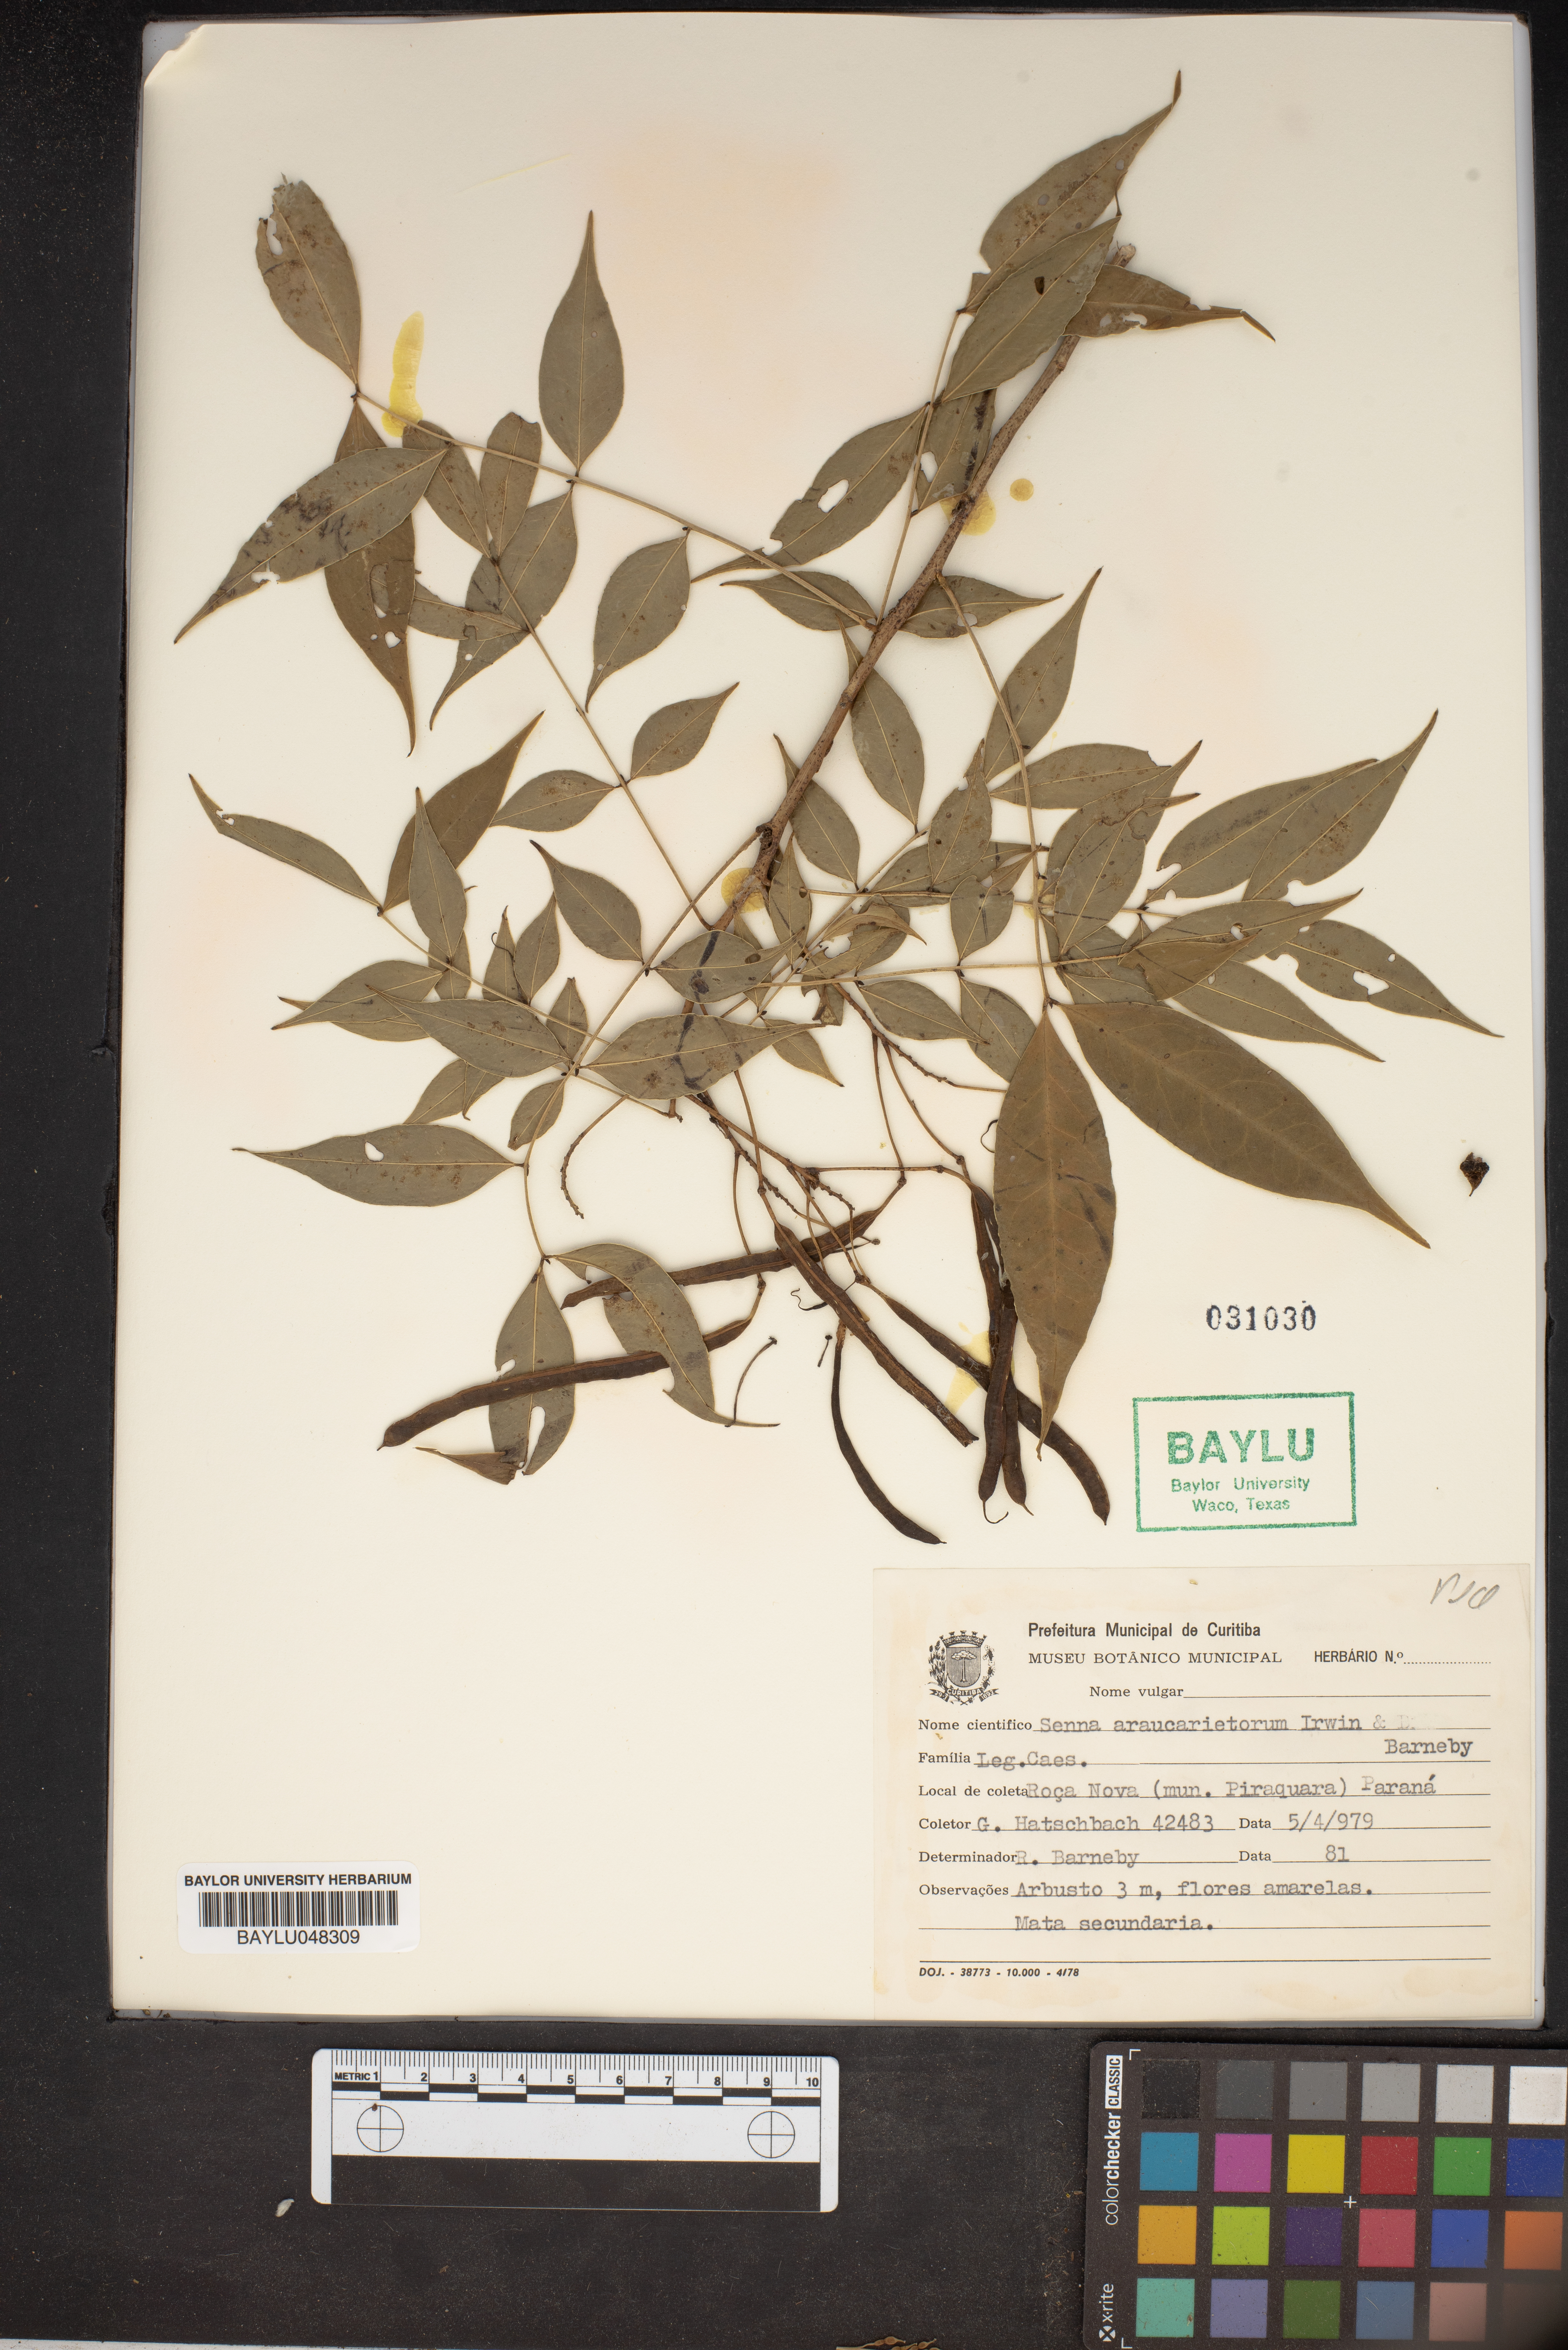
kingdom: Plantae
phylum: Tracheophyta
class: Magnoliopsida
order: Fabales
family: Fabaceae
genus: Senna
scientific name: Senna araucarietorum
